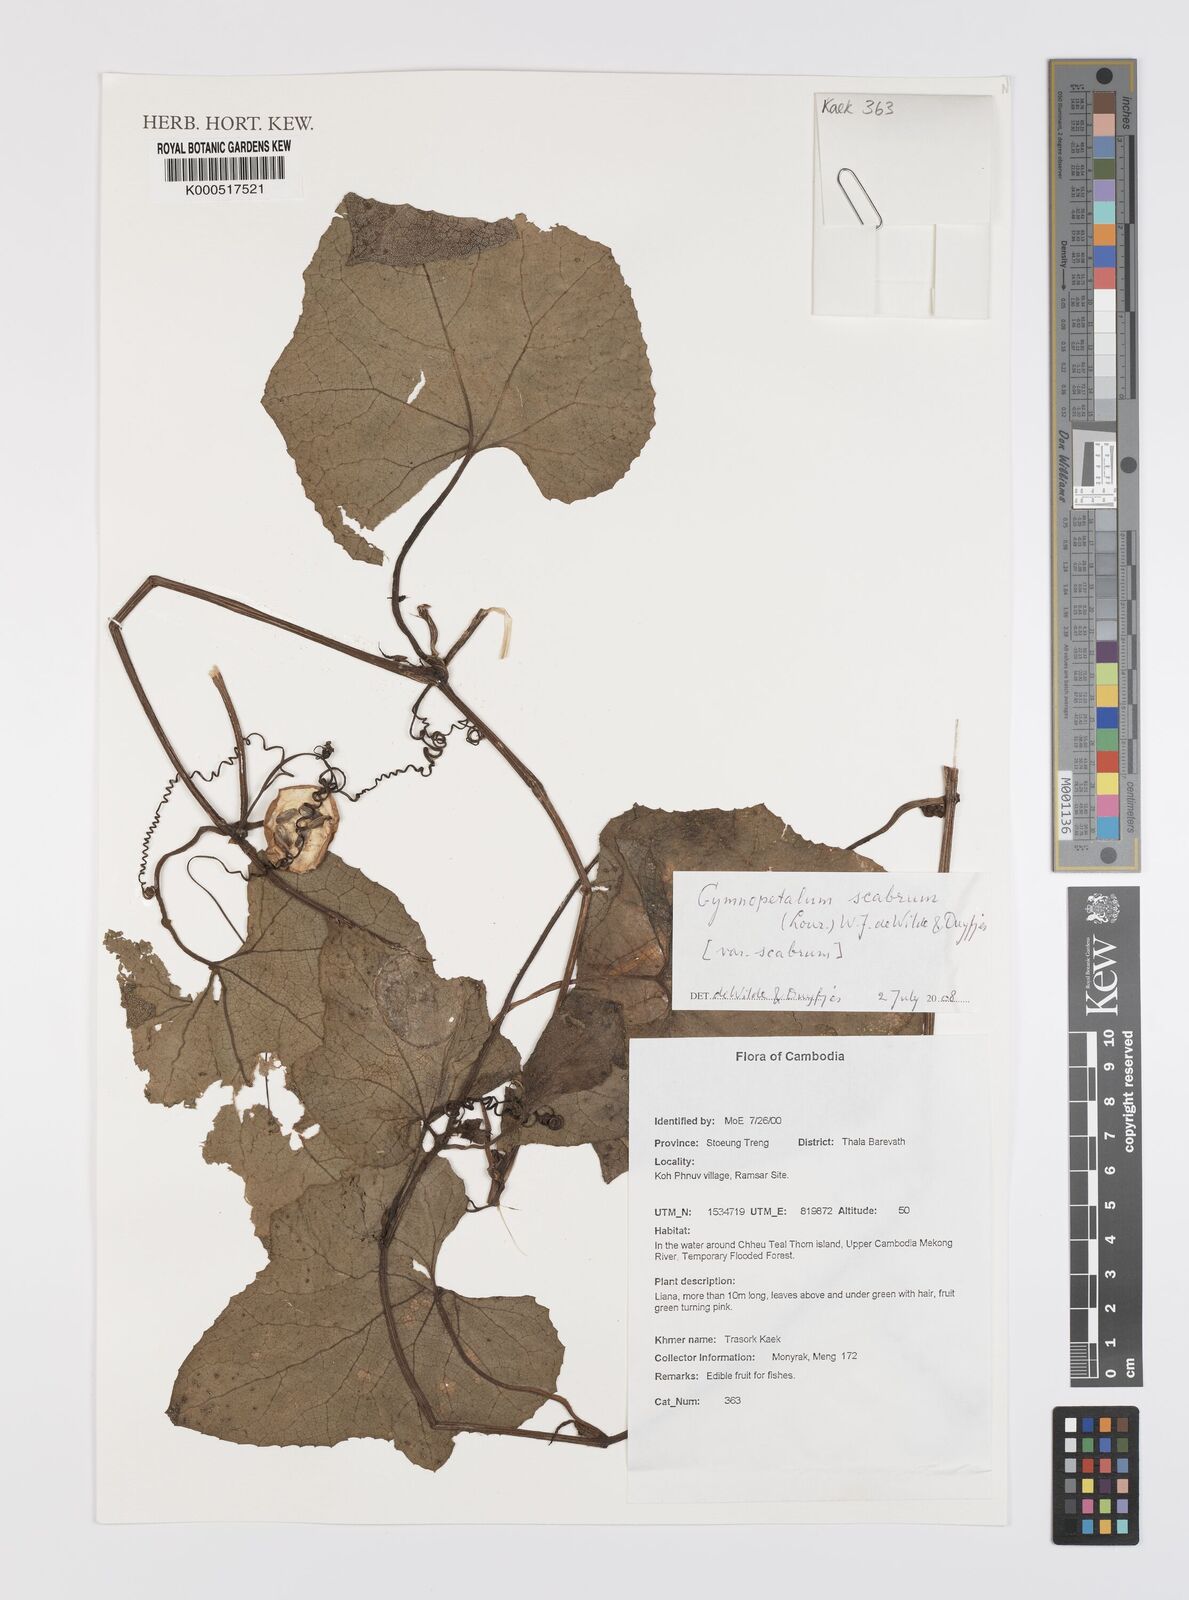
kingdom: Plantae
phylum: Tracheophyta
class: Magnoliopsida
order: Cucurbitales
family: Cucurbitaceae
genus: Trichosanthes
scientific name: Trichosanthes scabra
